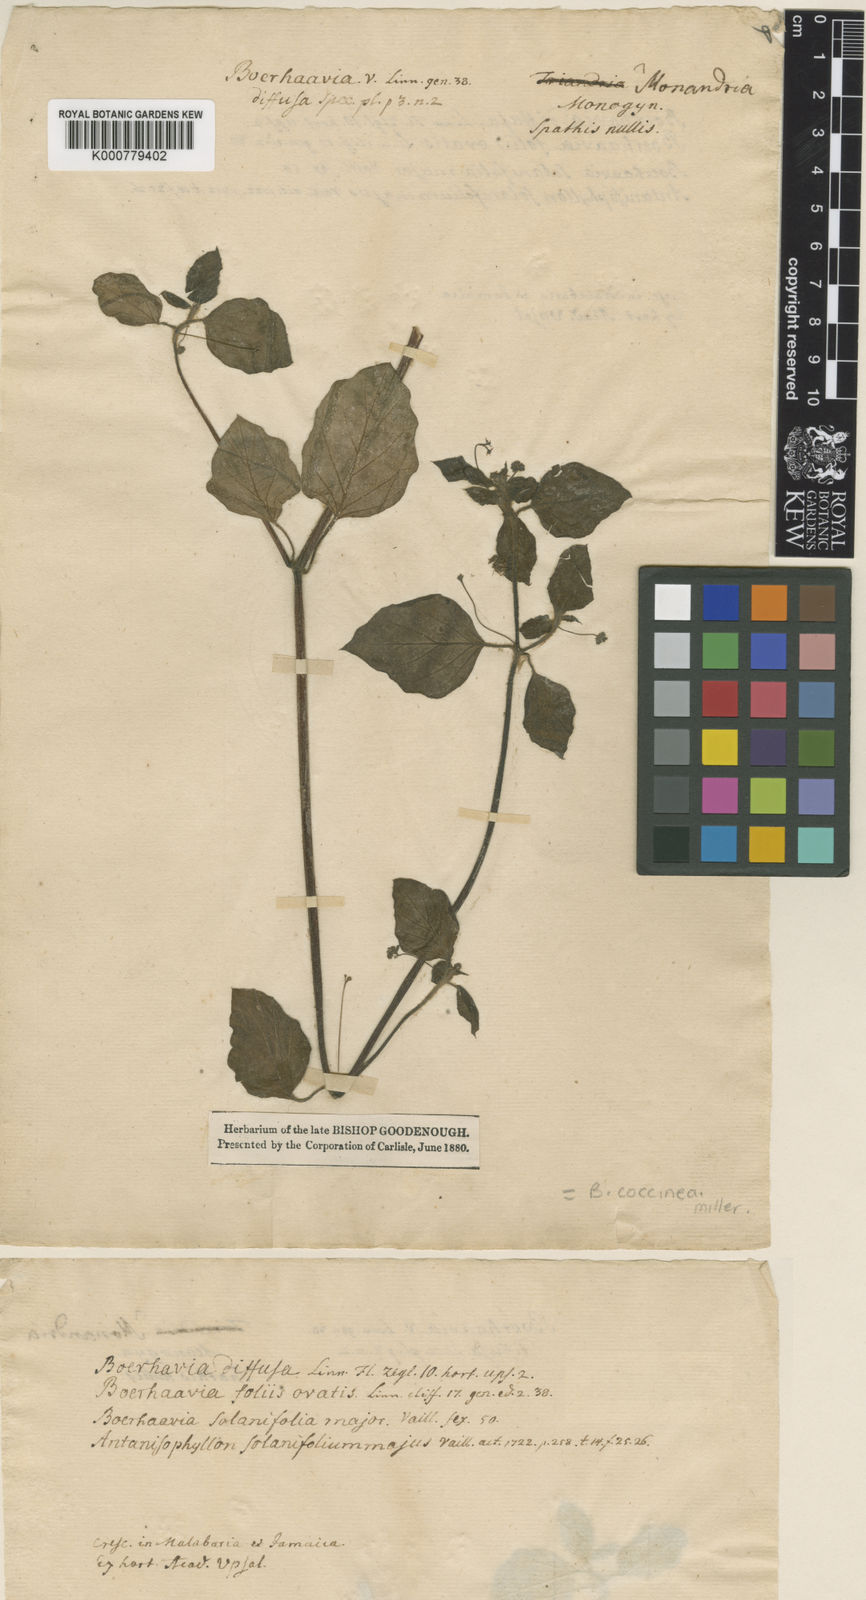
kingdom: Plantae
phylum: Tracheophyta
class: Magnoliopsida
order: Caryophyllales
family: Nyctaginaceae
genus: Boerhavia
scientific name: Boerhavia coccinea
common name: Scarlet spiderling
